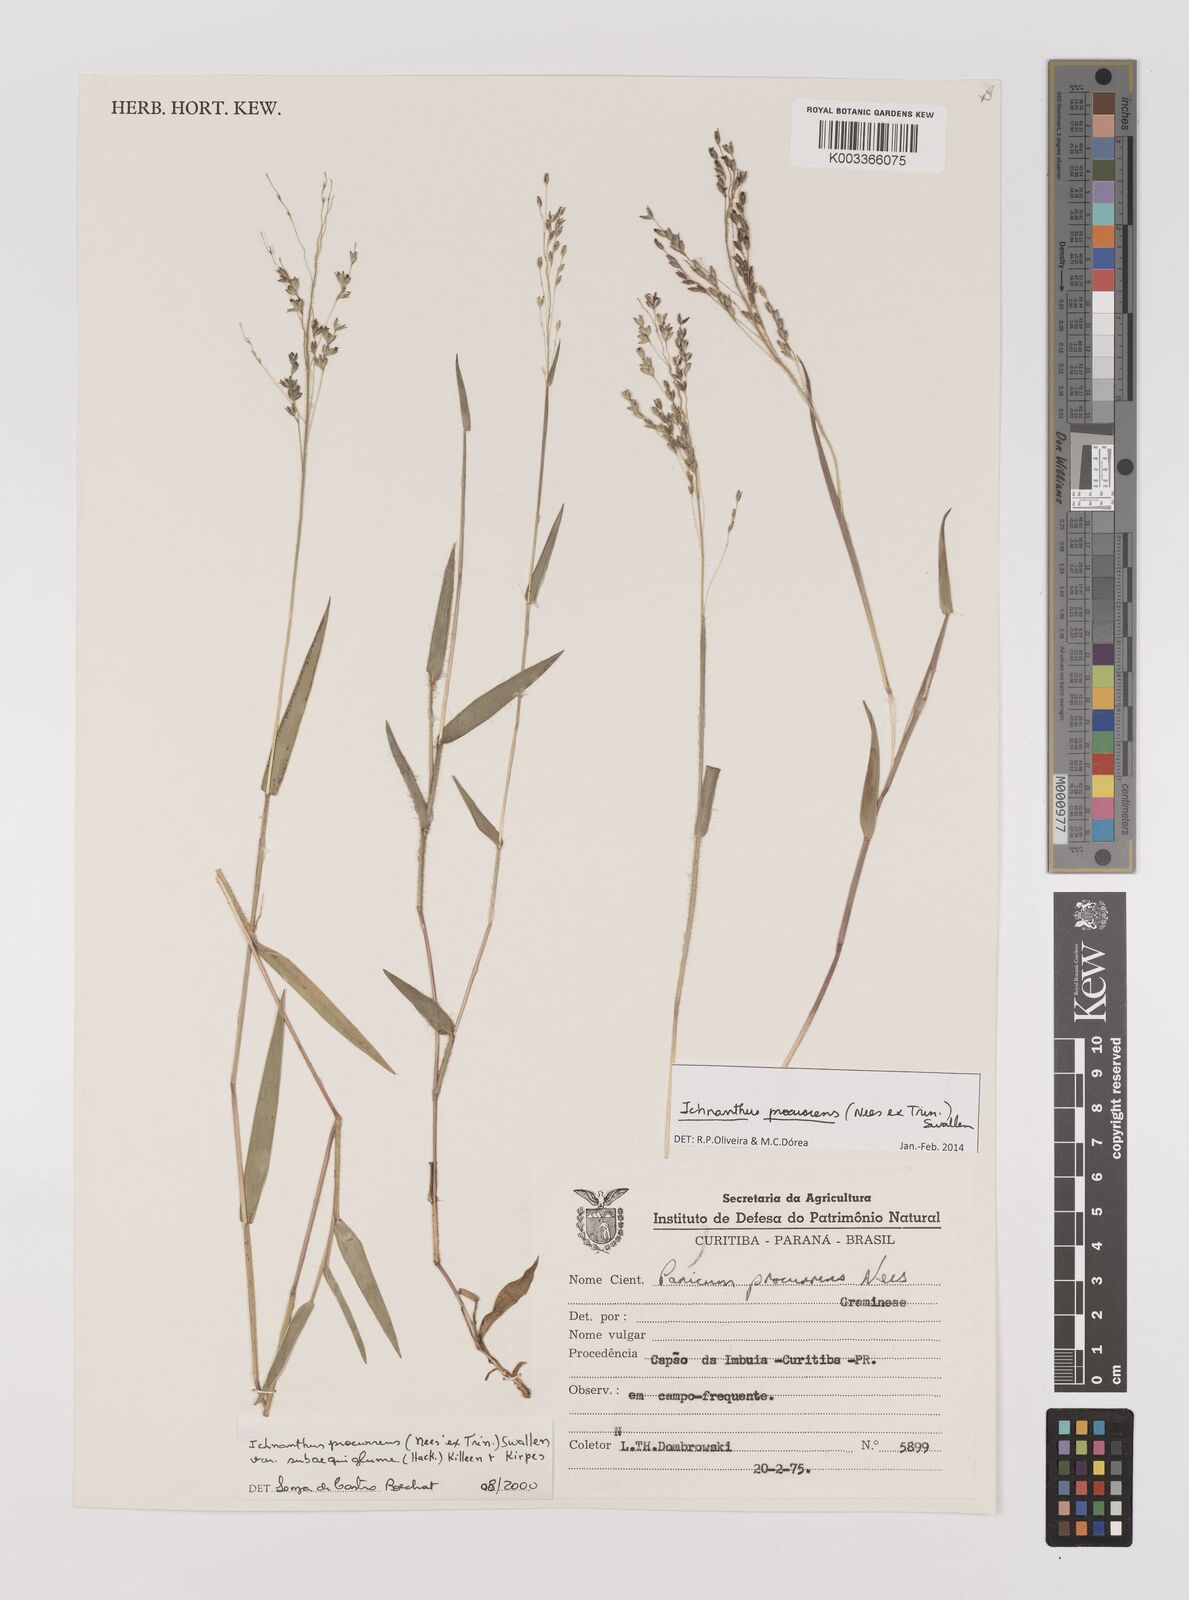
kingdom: Plantae
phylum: Tracheophyta
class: Liliopsida
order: Poales
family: Poaceae
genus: Oedochloa
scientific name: Oedochloa procurrens
